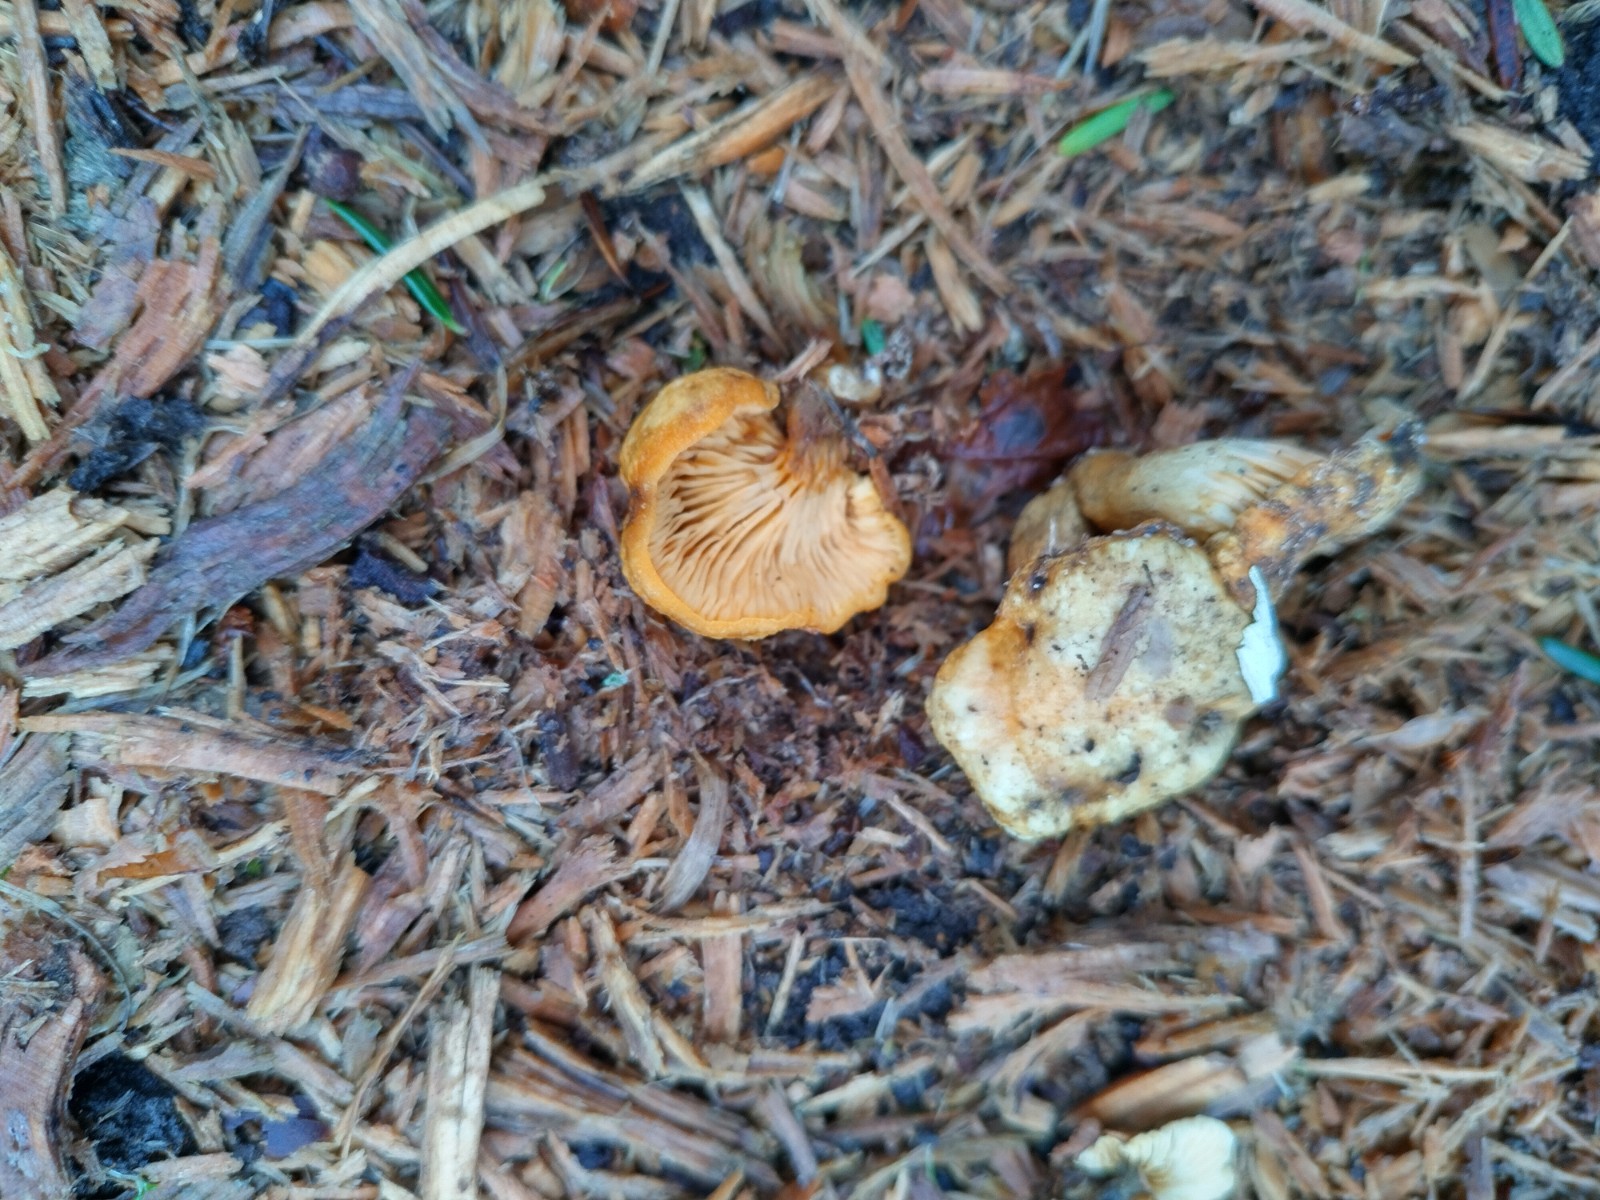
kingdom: Fungi
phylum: Basidiomycota
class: Agaricomycetes
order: Boletales
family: Hygrophoropsidaceae
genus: Hygrophoropsis
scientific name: Hygrophoropsis
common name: orangekantarel
